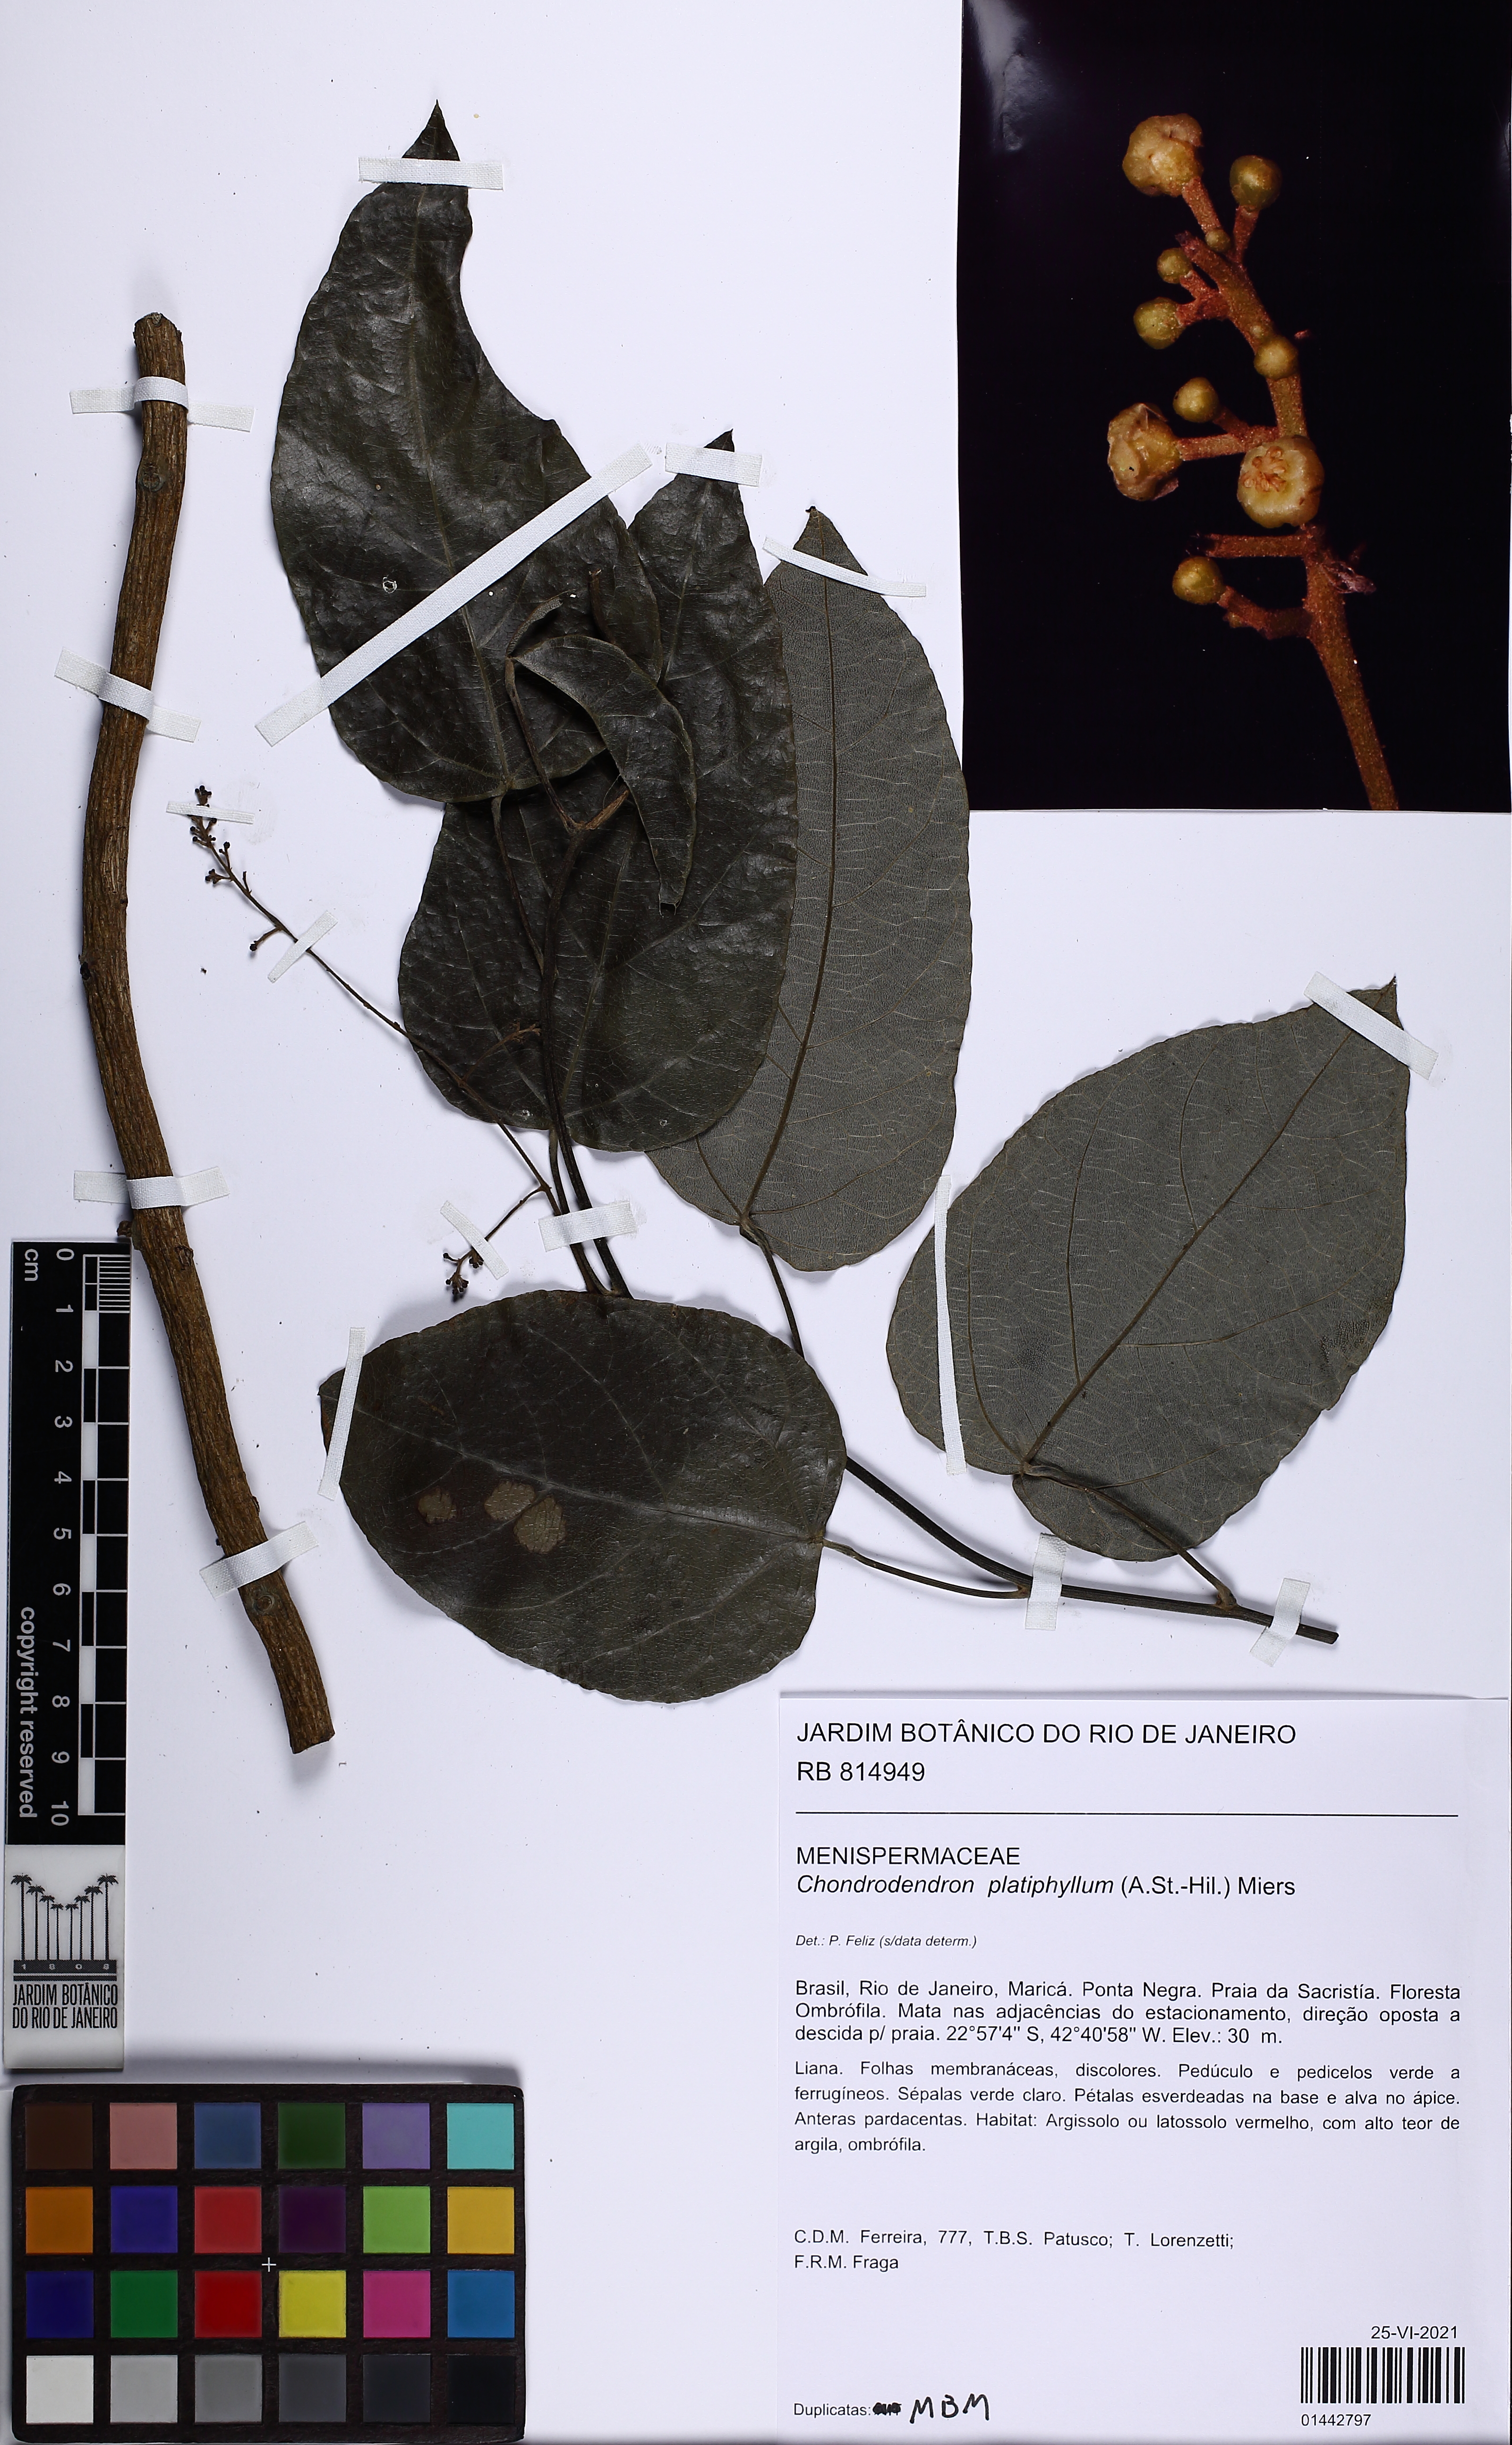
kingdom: Plantae
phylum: Tracheophyta
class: Magnoliopsida
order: Ranunculales
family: Menispermaceae
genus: Chondrodendron
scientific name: Chondrodendron platyphyllum
